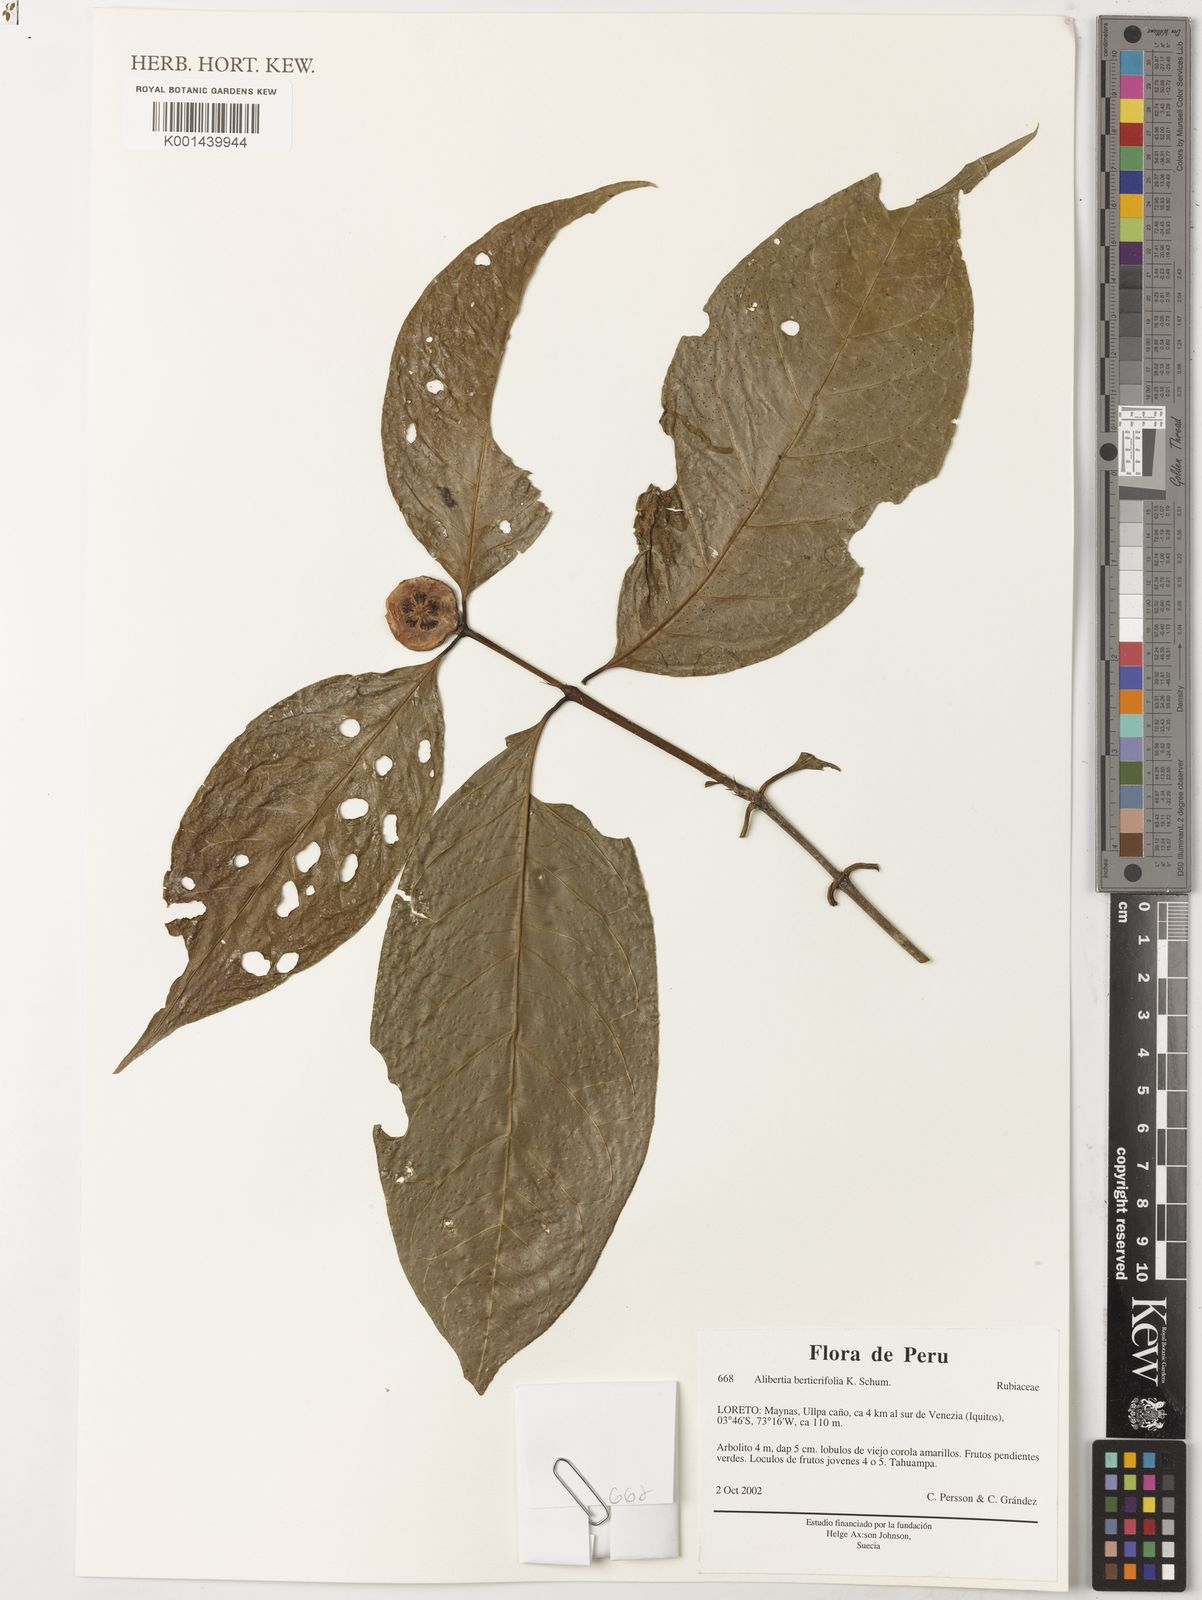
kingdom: Plantae
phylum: Tracheophyta
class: Magnoliopsida
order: Gentianales
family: Rubiaceae
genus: Alibertia
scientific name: Alibertia bertierifolia
